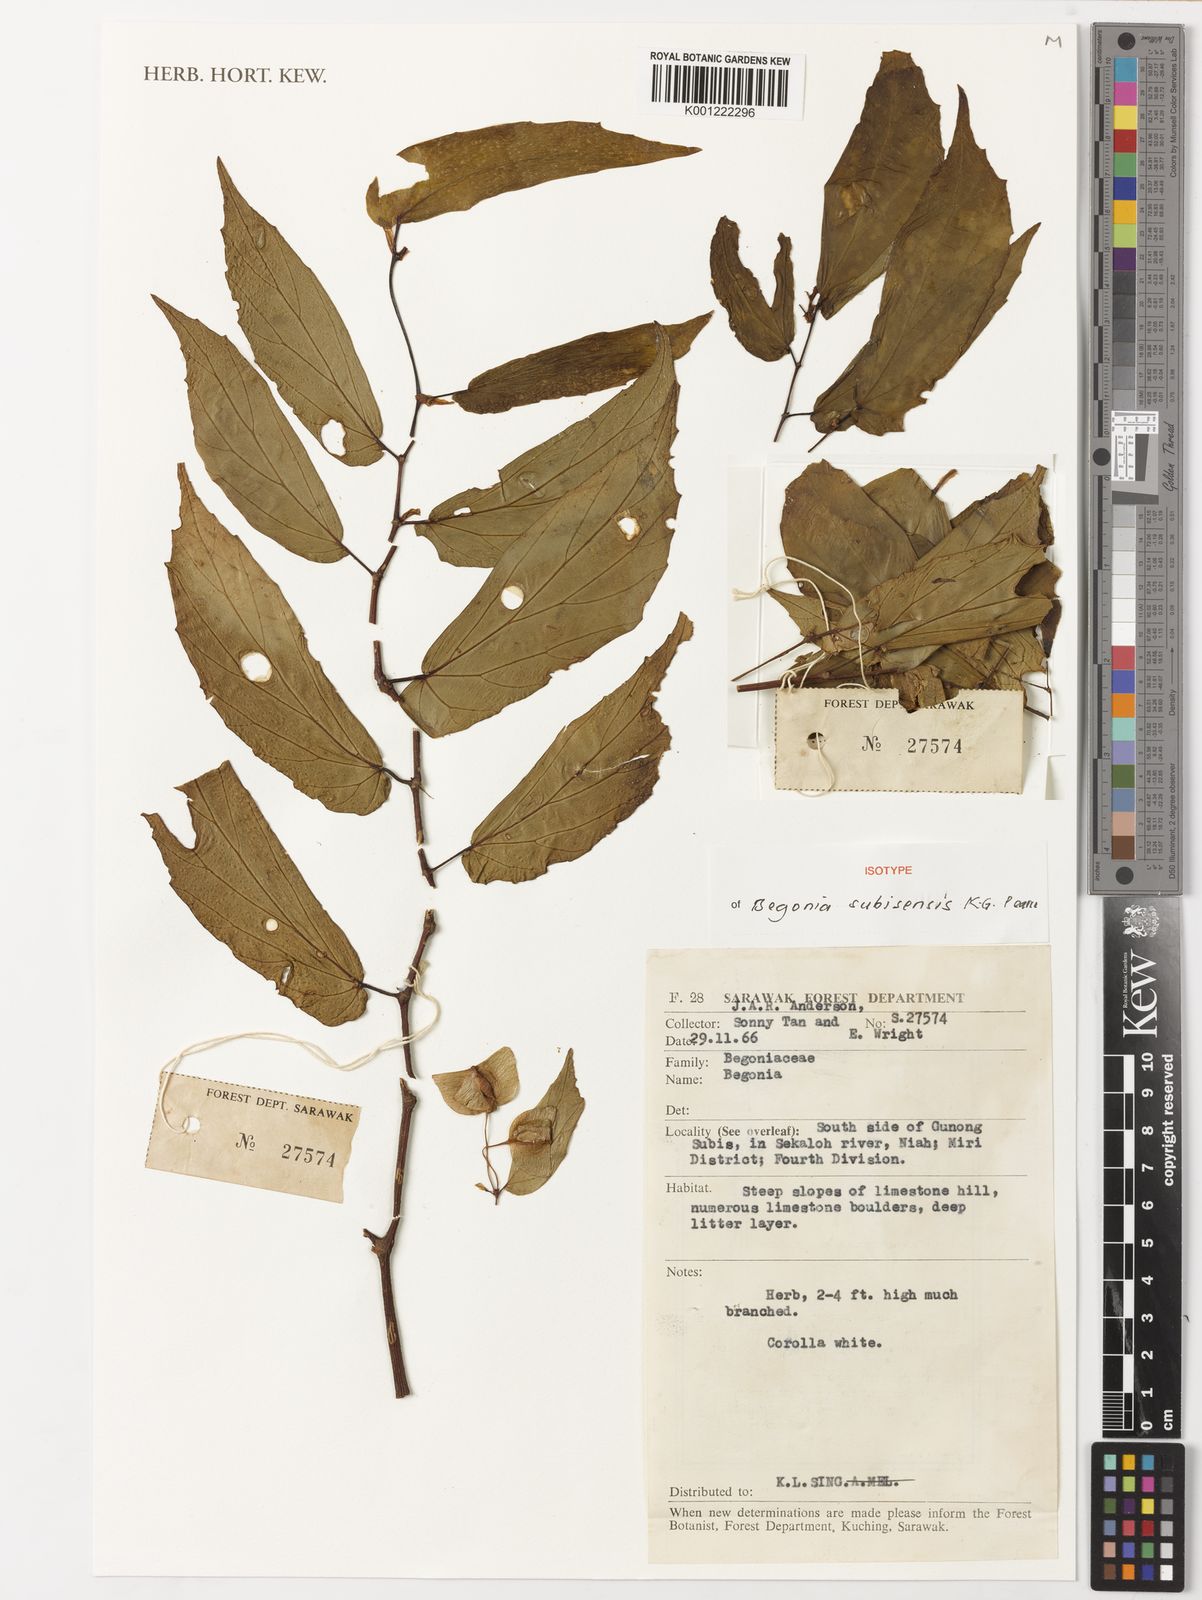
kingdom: Plantae
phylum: Tracheophyta
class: Magnoliopsida
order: Cucurbitales
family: Begoniaceae
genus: Begonia
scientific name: Begonia subisensis
